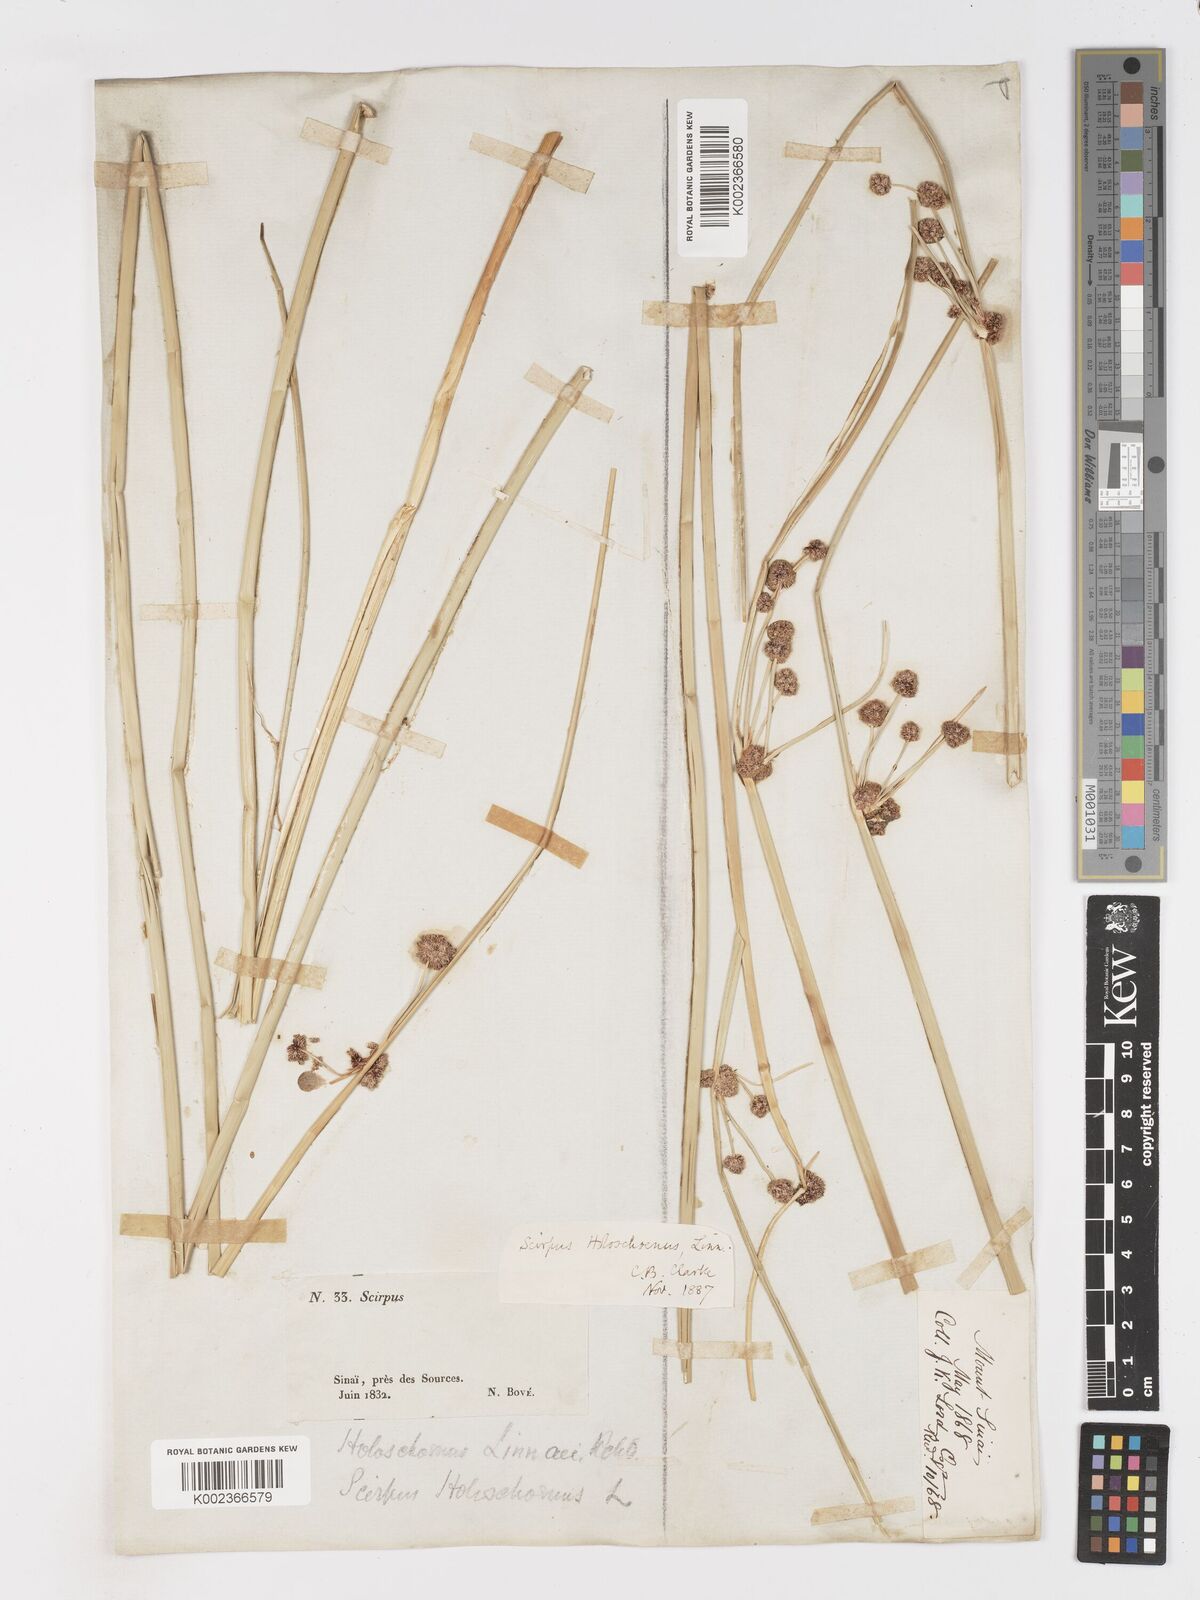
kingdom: Plantae
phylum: Tracheophyta
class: Liliopsida
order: Poales
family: Cyperaceae
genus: Scirpoides
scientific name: Scirpoides holoschoenus
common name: Round-headed club-rush
